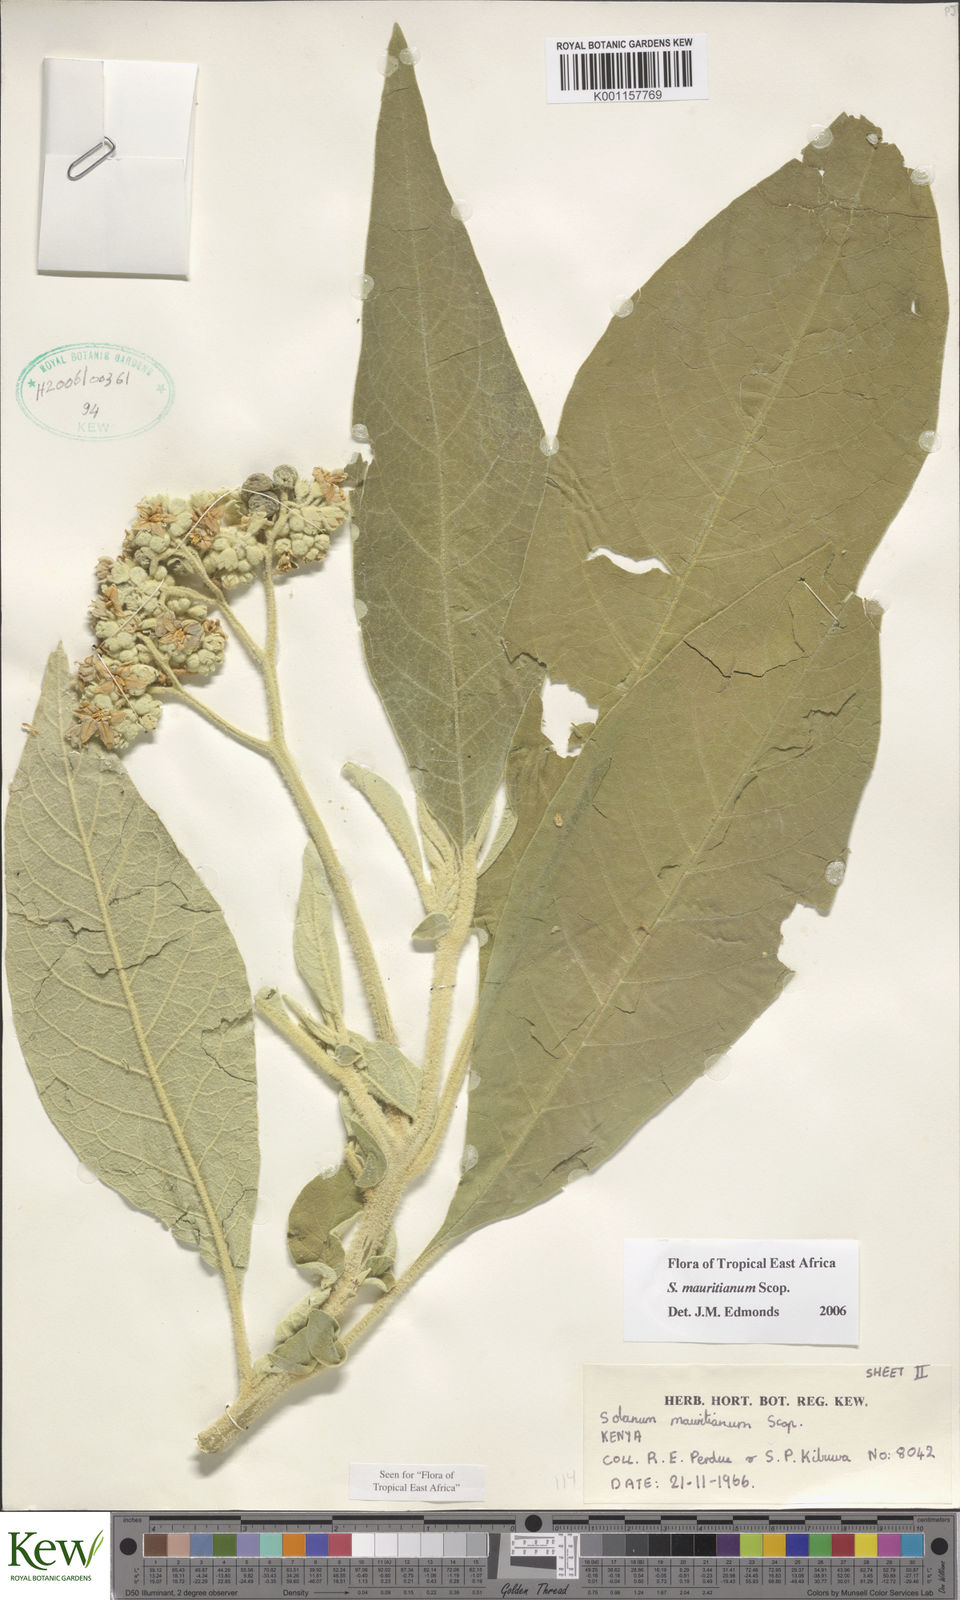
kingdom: Plantae
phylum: Tracheophyta
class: Magnoliopsida
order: Solanales
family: Solanaceae
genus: Solanum
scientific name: Solanum mauritianum
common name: Earleaf nightshade
